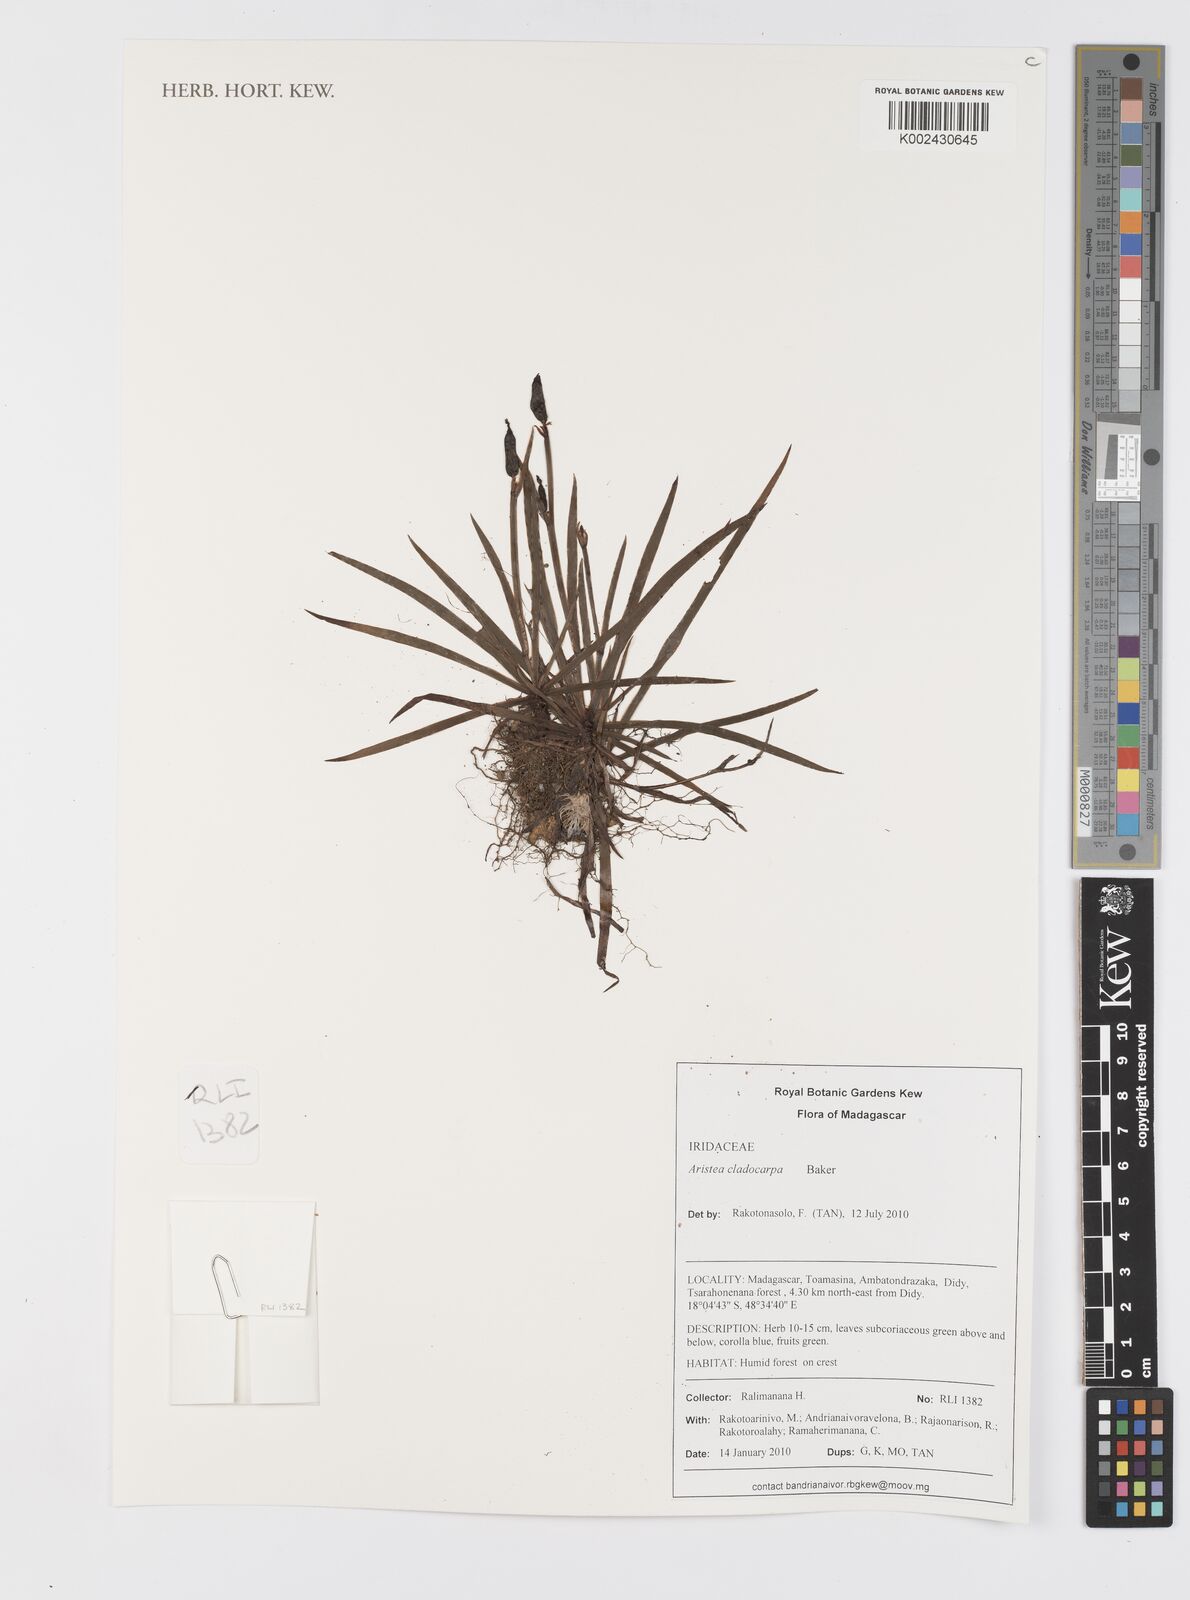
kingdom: Plantae
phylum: Tracheophyta
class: Liliopsida
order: Asparagales
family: Iridaceae
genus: Aristea
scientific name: Aristea cladocarpa
